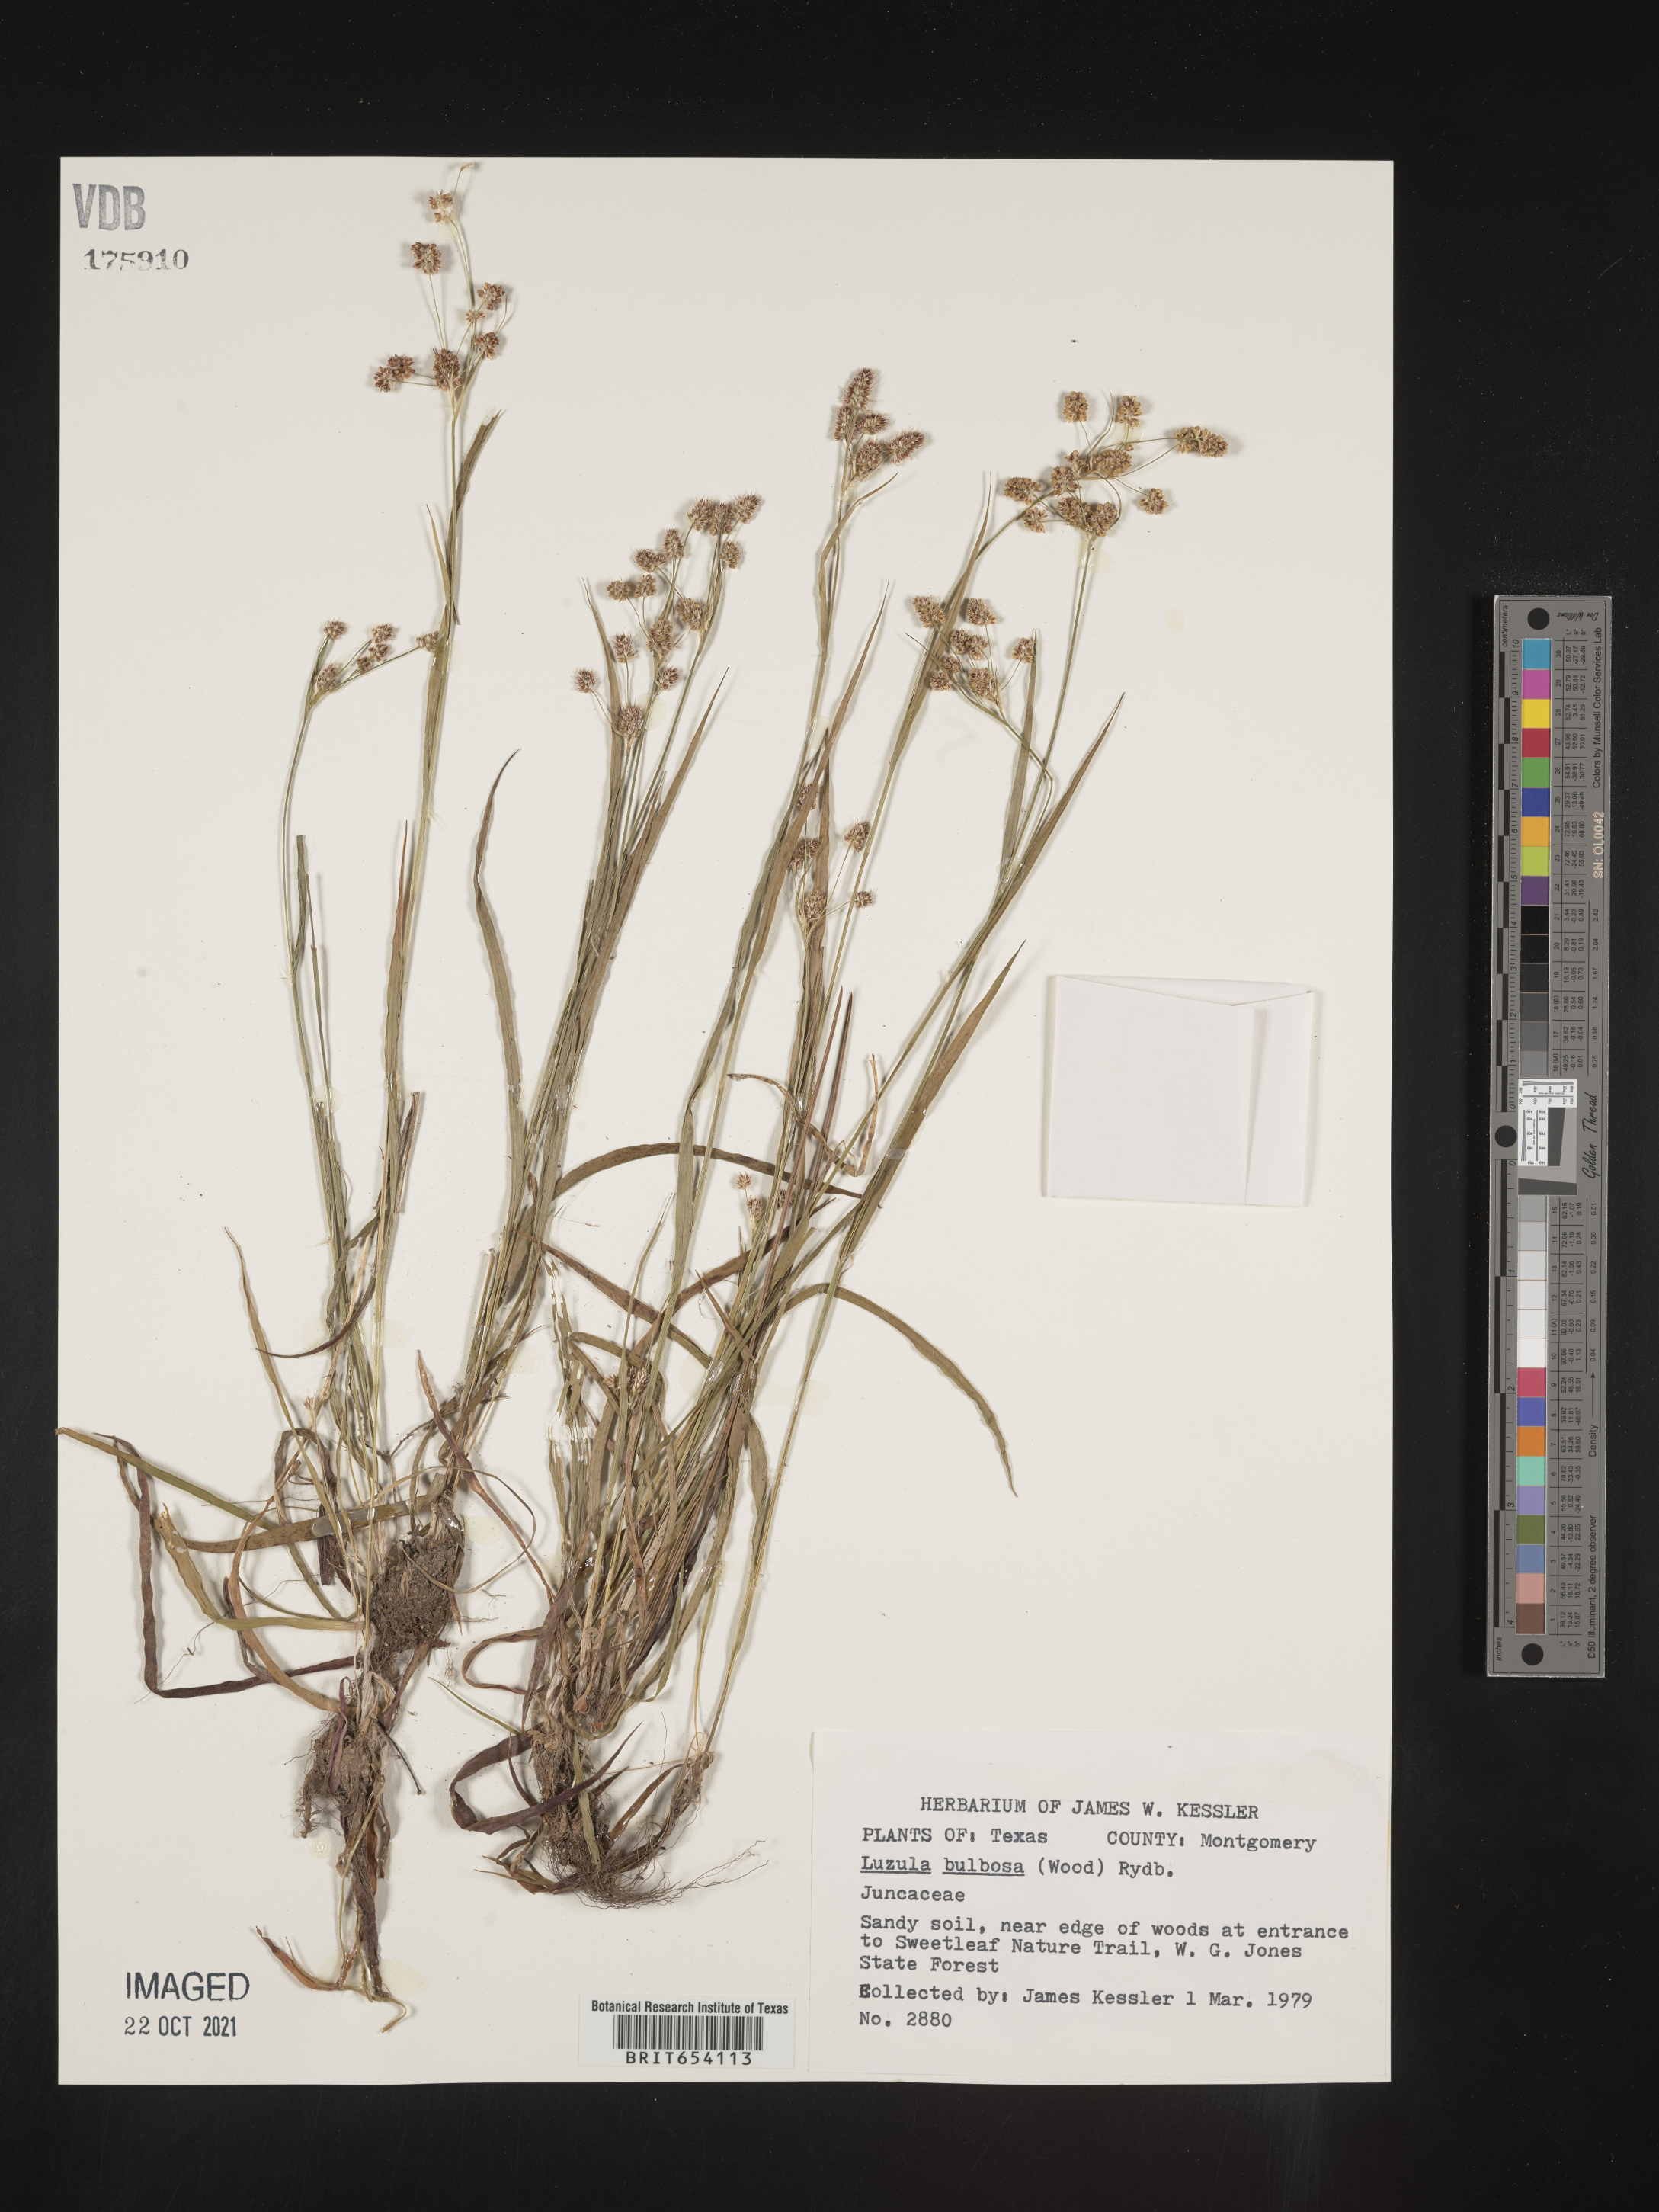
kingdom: Plantae
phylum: Tracheophyta
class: Liliopsida
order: Poales
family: Juncaceae
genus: Luzula
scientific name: Luzula bulbosa
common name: Bulbous woodrush
